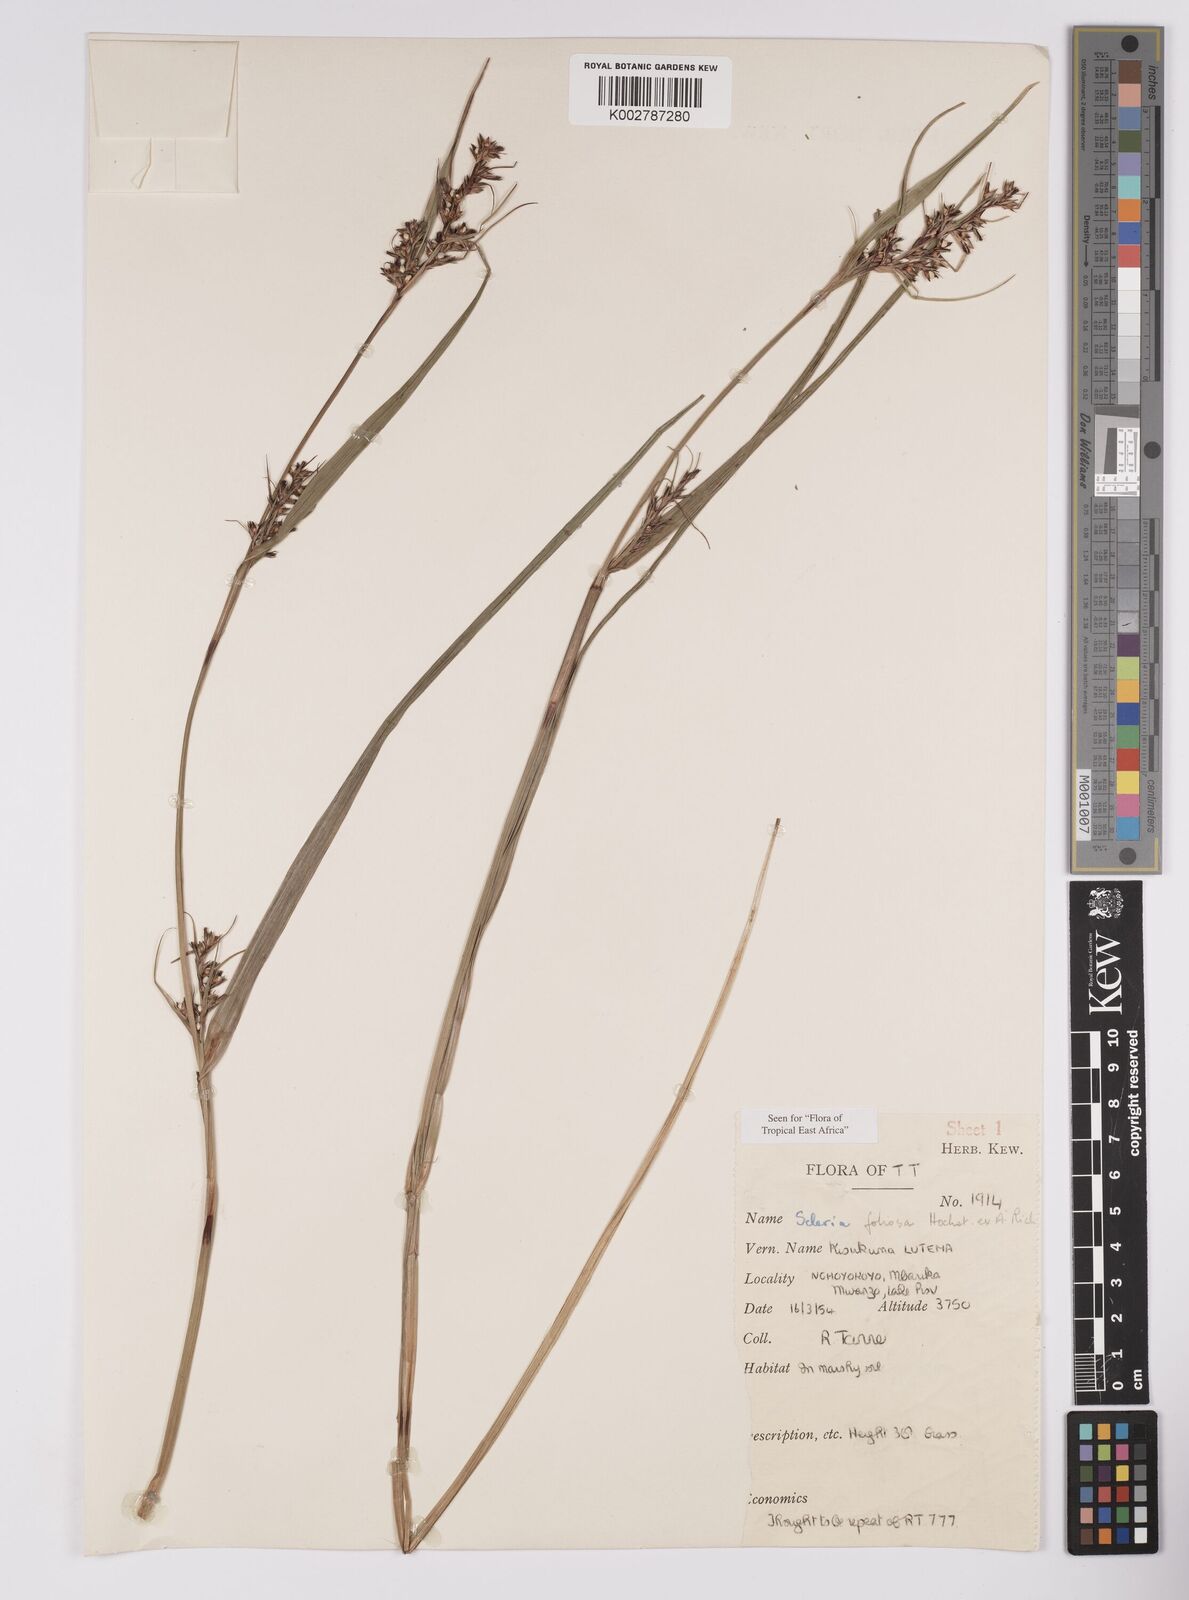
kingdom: Plantae
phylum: Tracheophyta
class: Liliopsida
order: Poales
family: Cyperaceae
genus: Scleria
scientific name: Scleria foliosa
